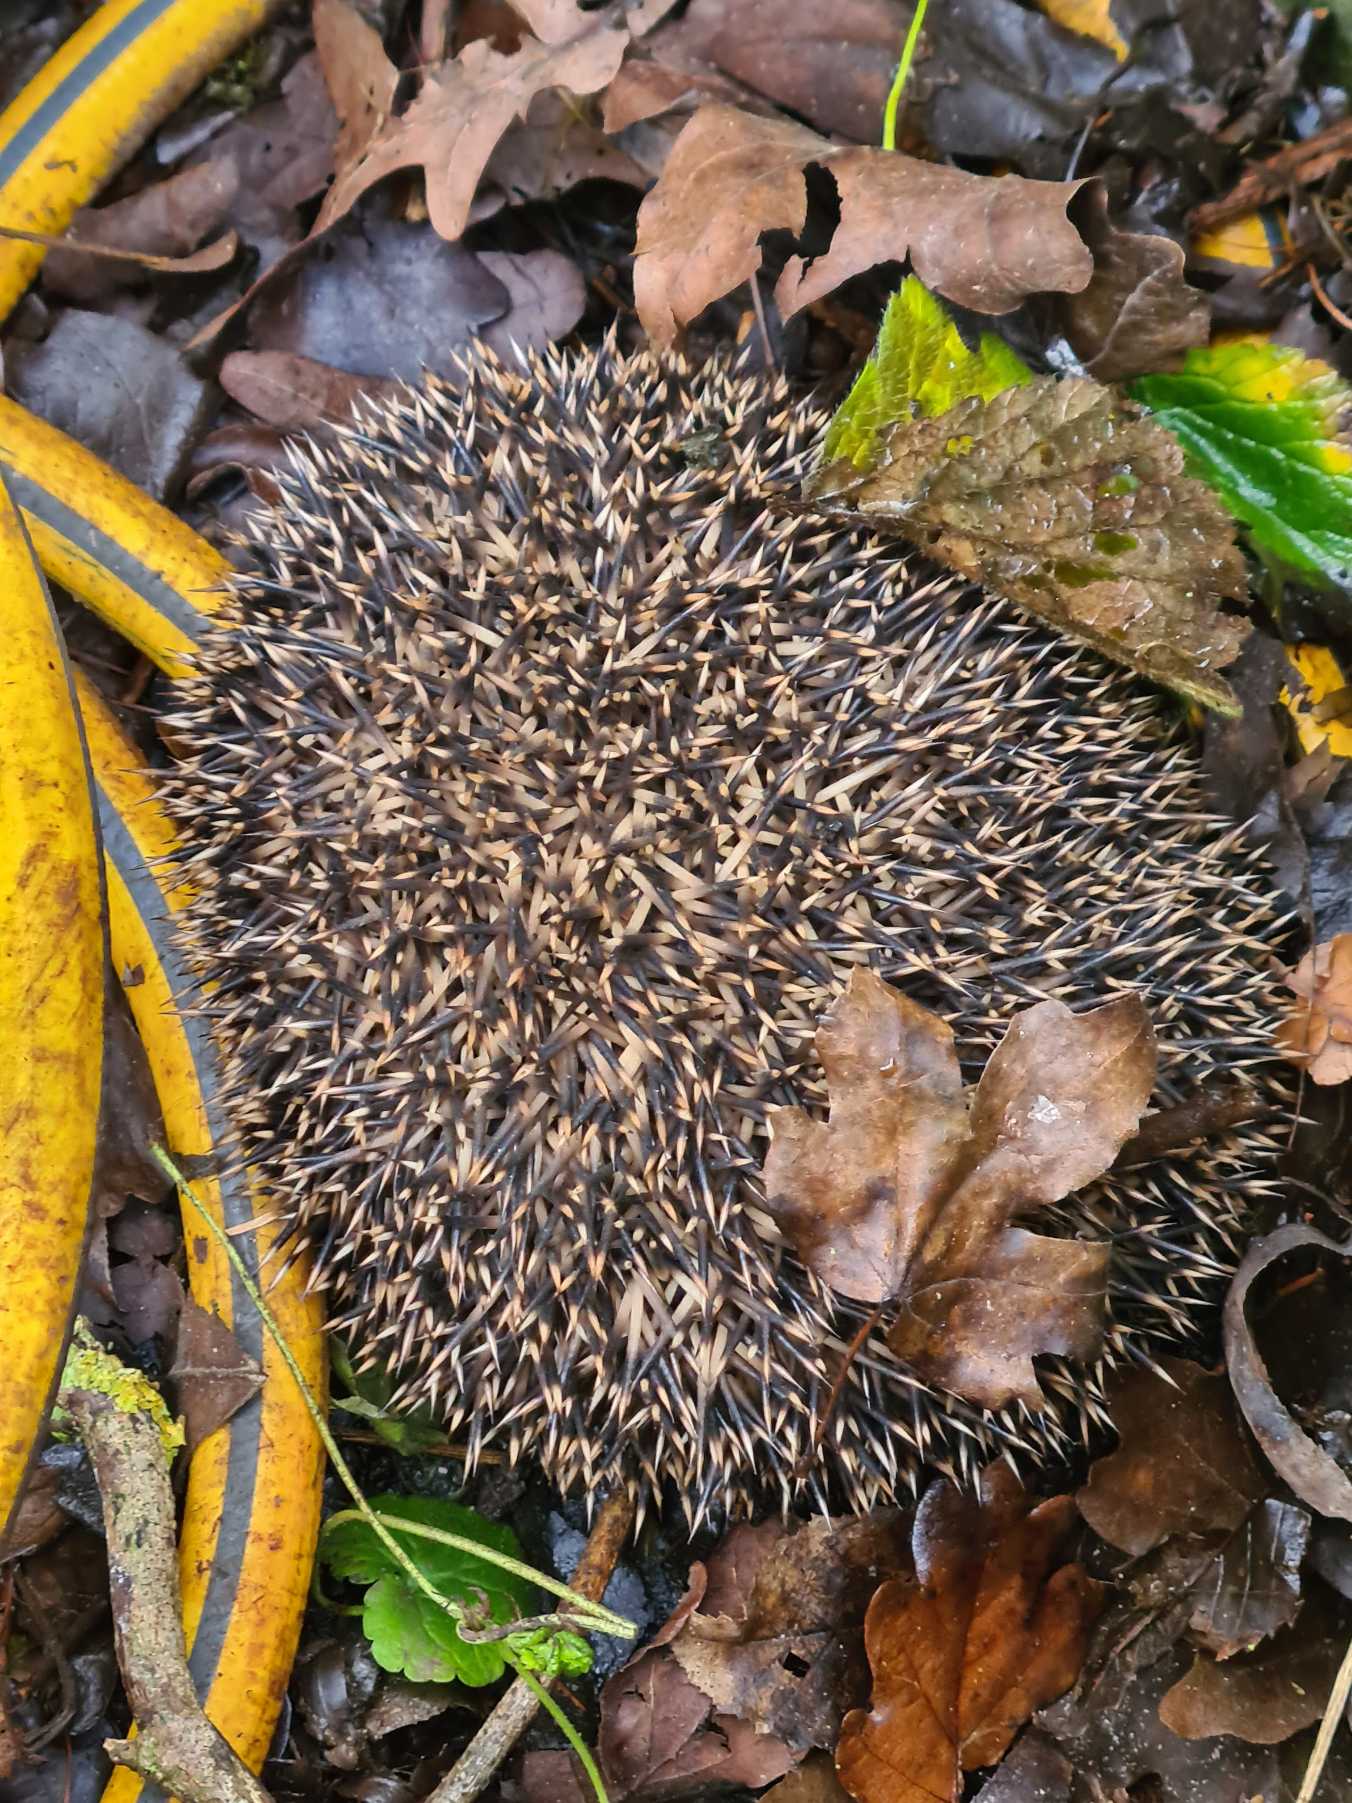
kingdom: Animalia
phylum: Chordata
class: Mammalia
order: Erinaceomorpha
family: Erinaceidae
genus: Erinaceus
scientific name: Erinaceus europaeus
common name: Pindsvin
